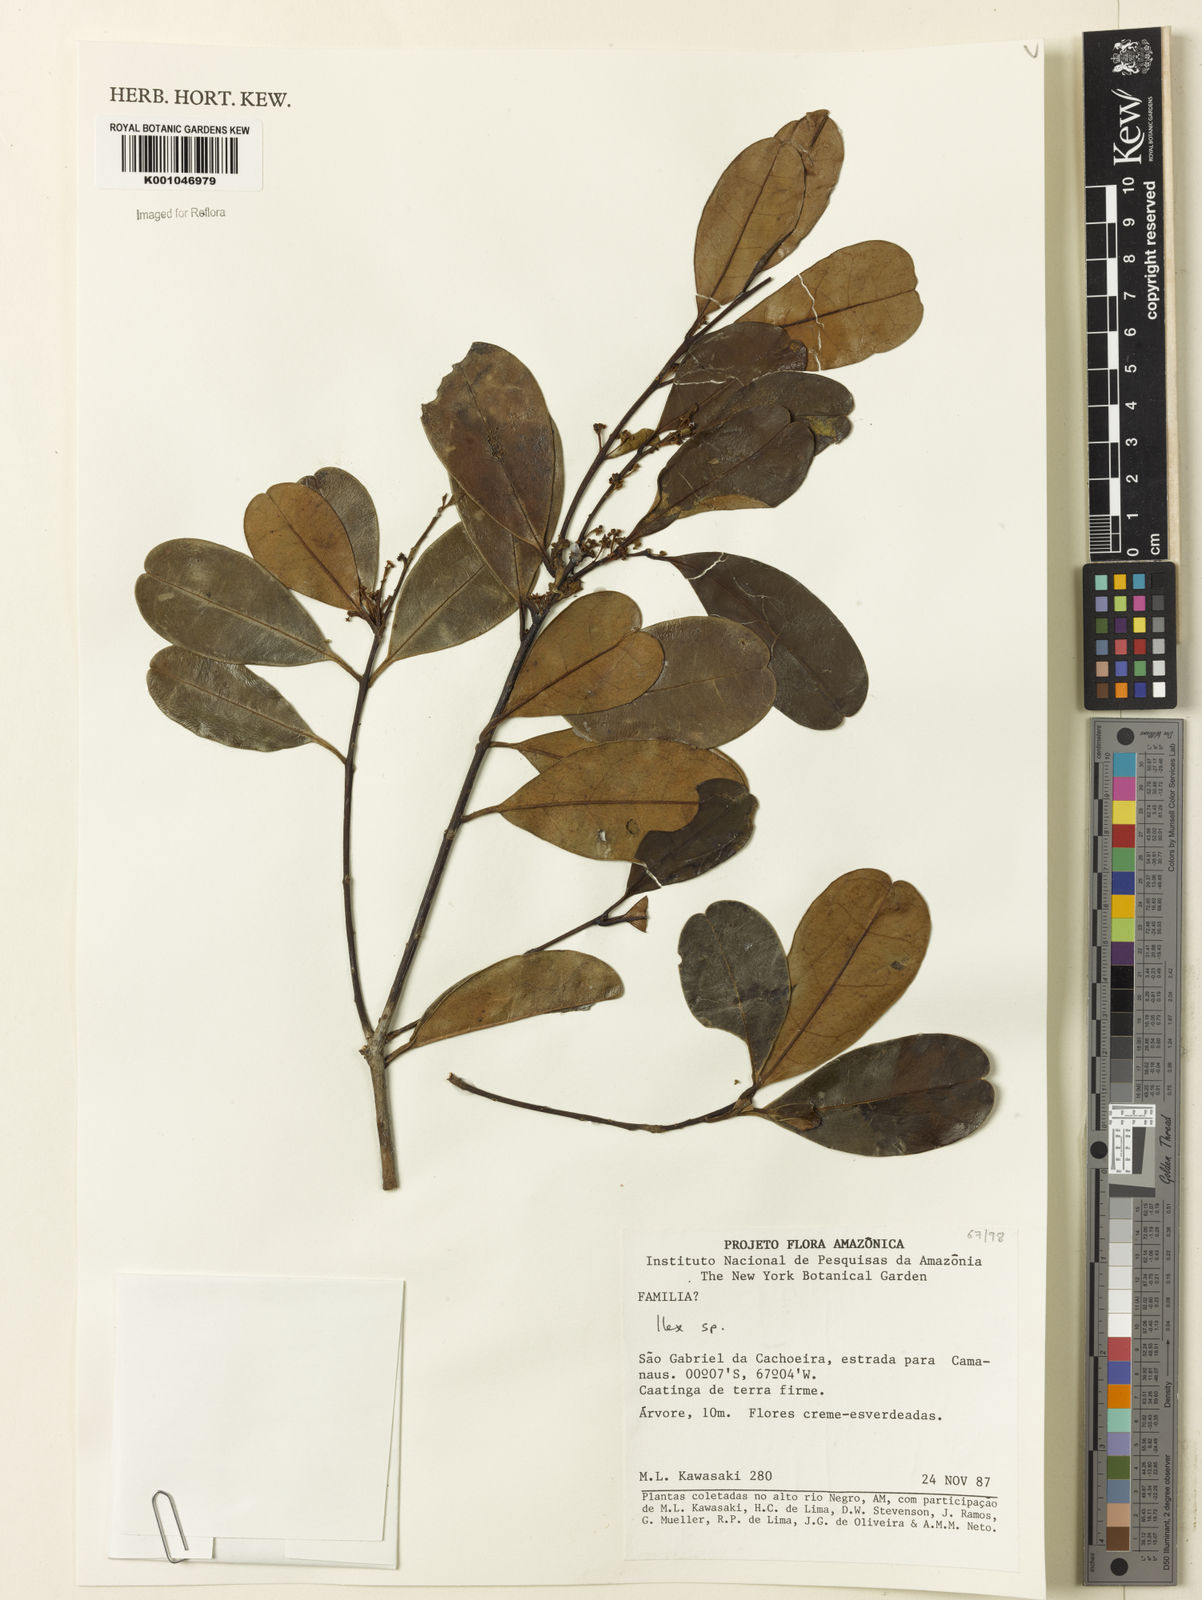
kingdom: Plantae
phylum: Tracheophyta
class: Magnoliopsida
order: Aquifoliales
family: Aquifoliaceae
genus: Ilex
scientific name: Ilex
